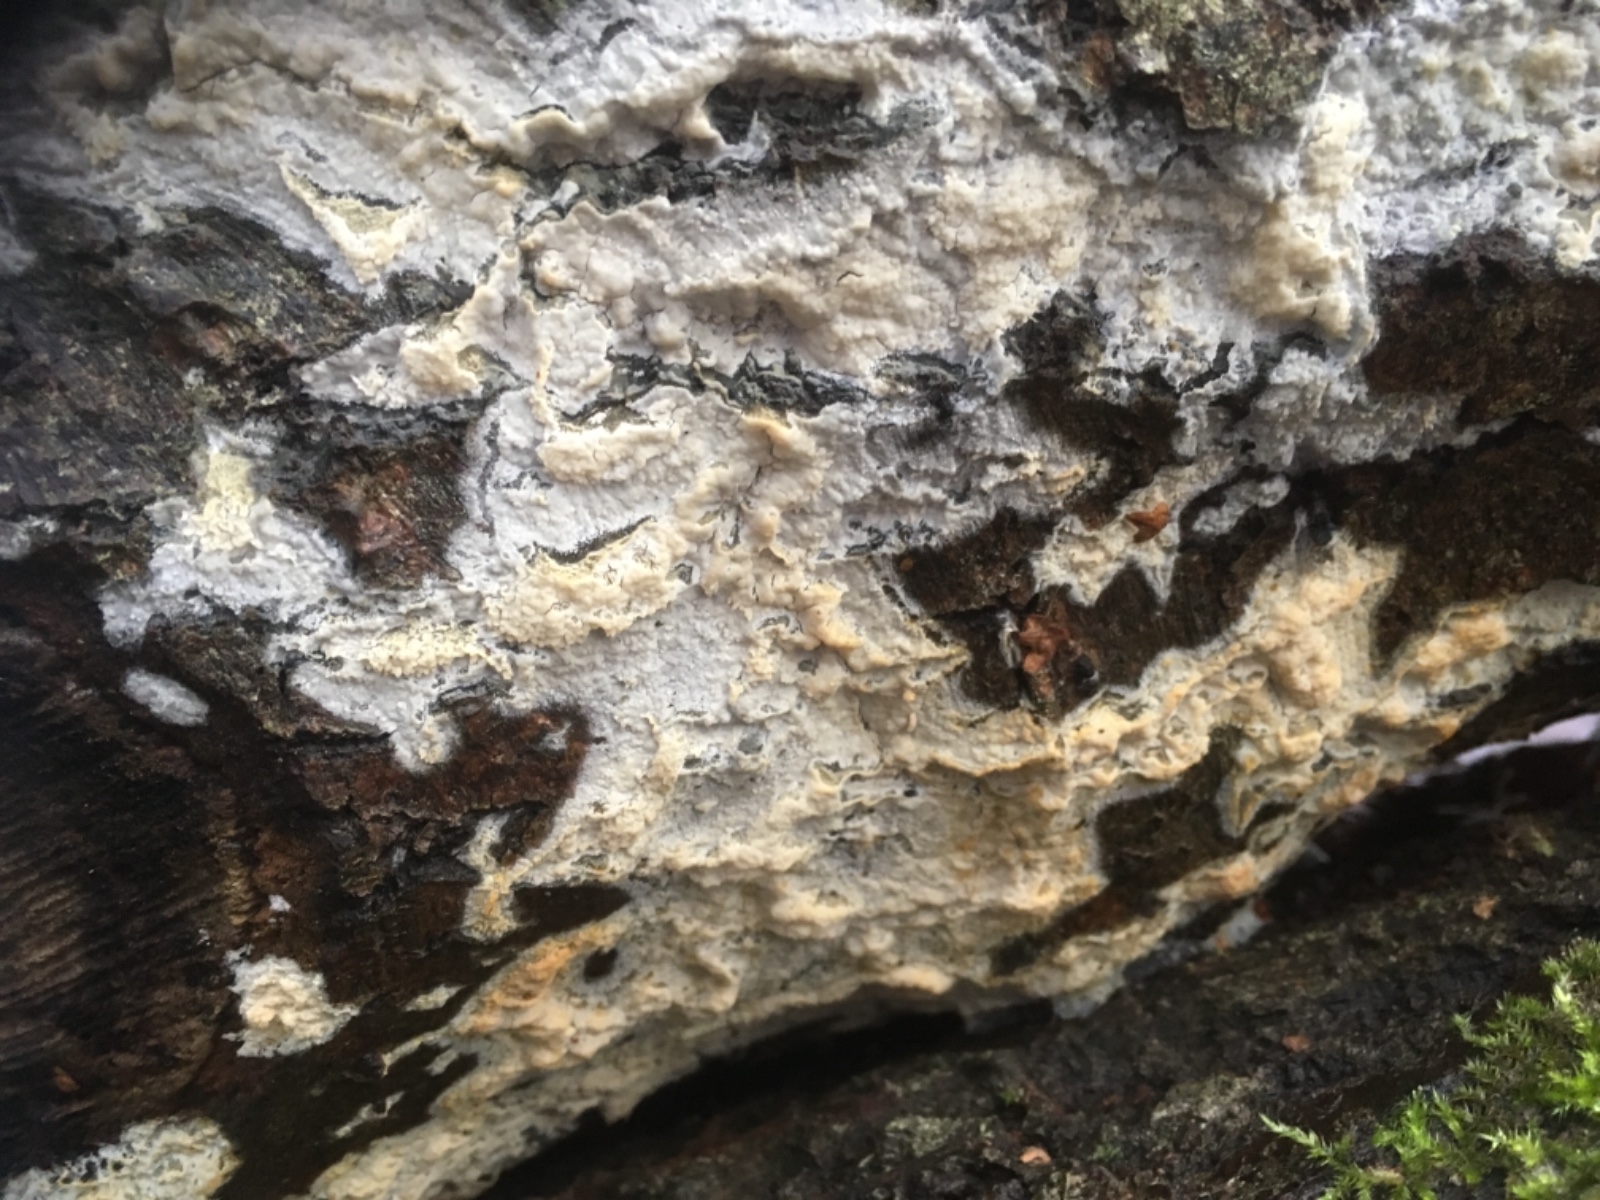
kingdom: Fungi
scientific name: Fungi
